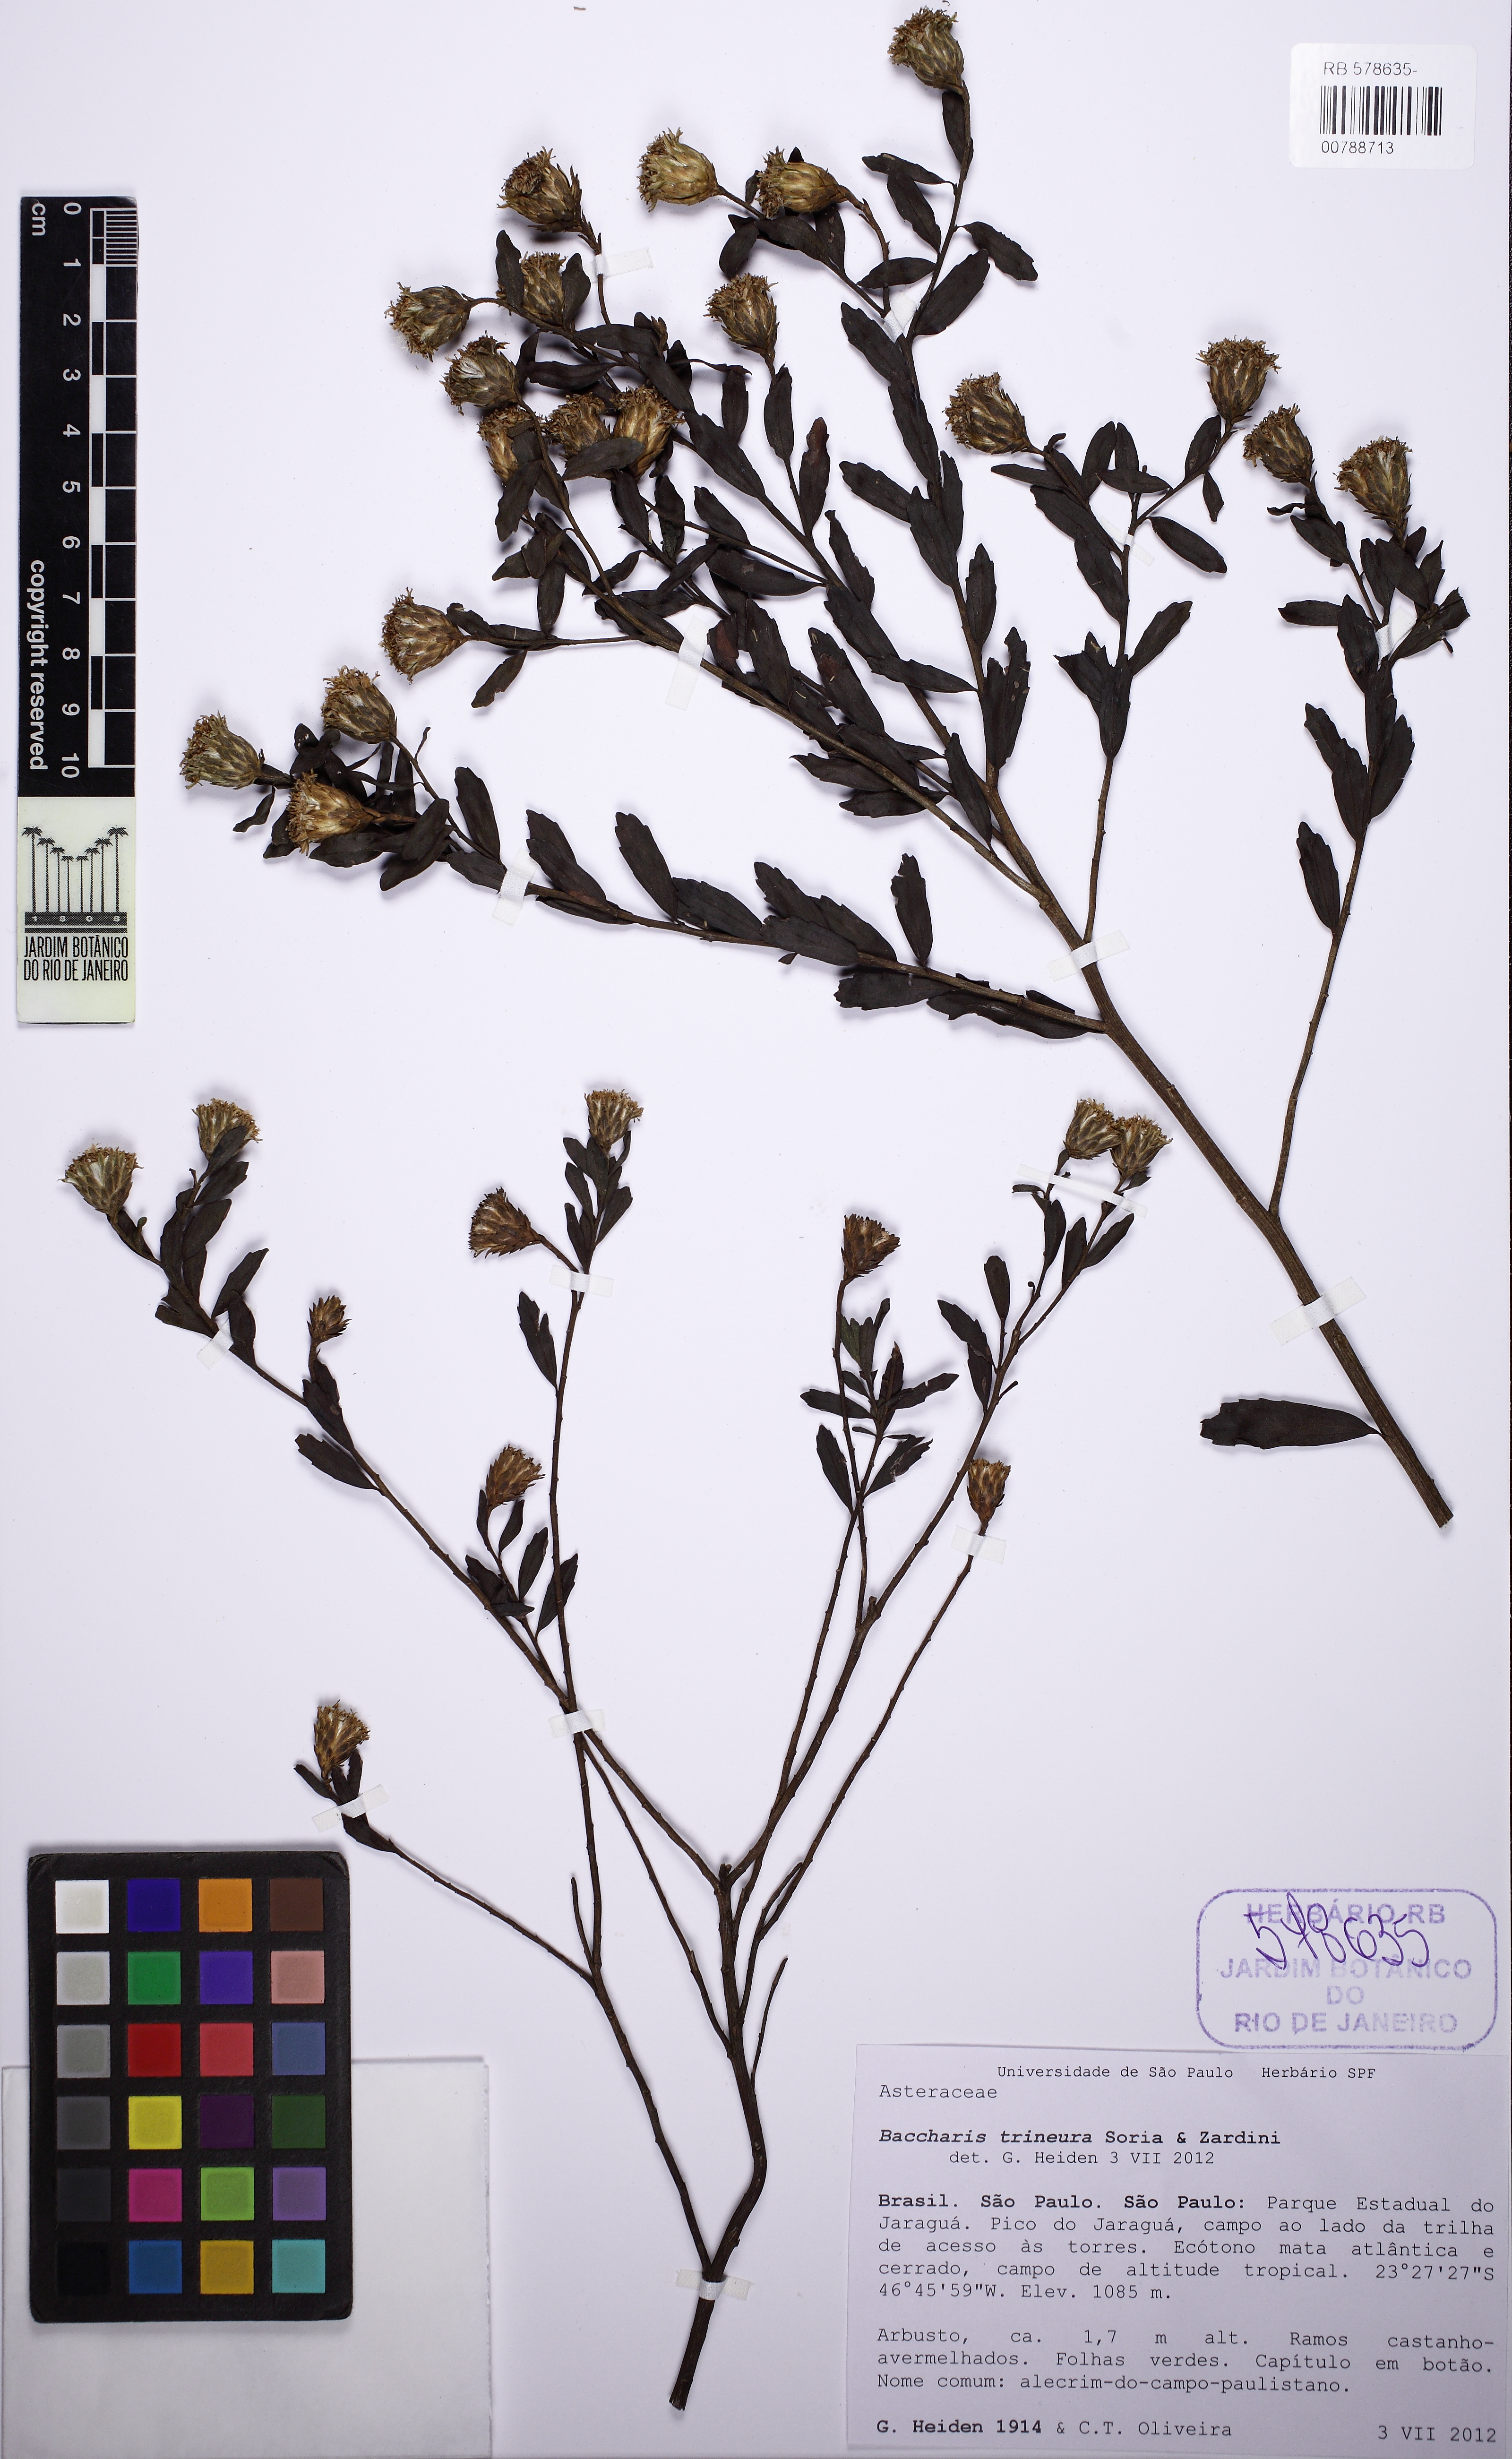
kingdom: Plantae
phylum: Tracheophyta
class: Magnoliopsida
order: Asterales
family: Asteraceae
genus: Baccharis
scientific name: Baccharis trineura
